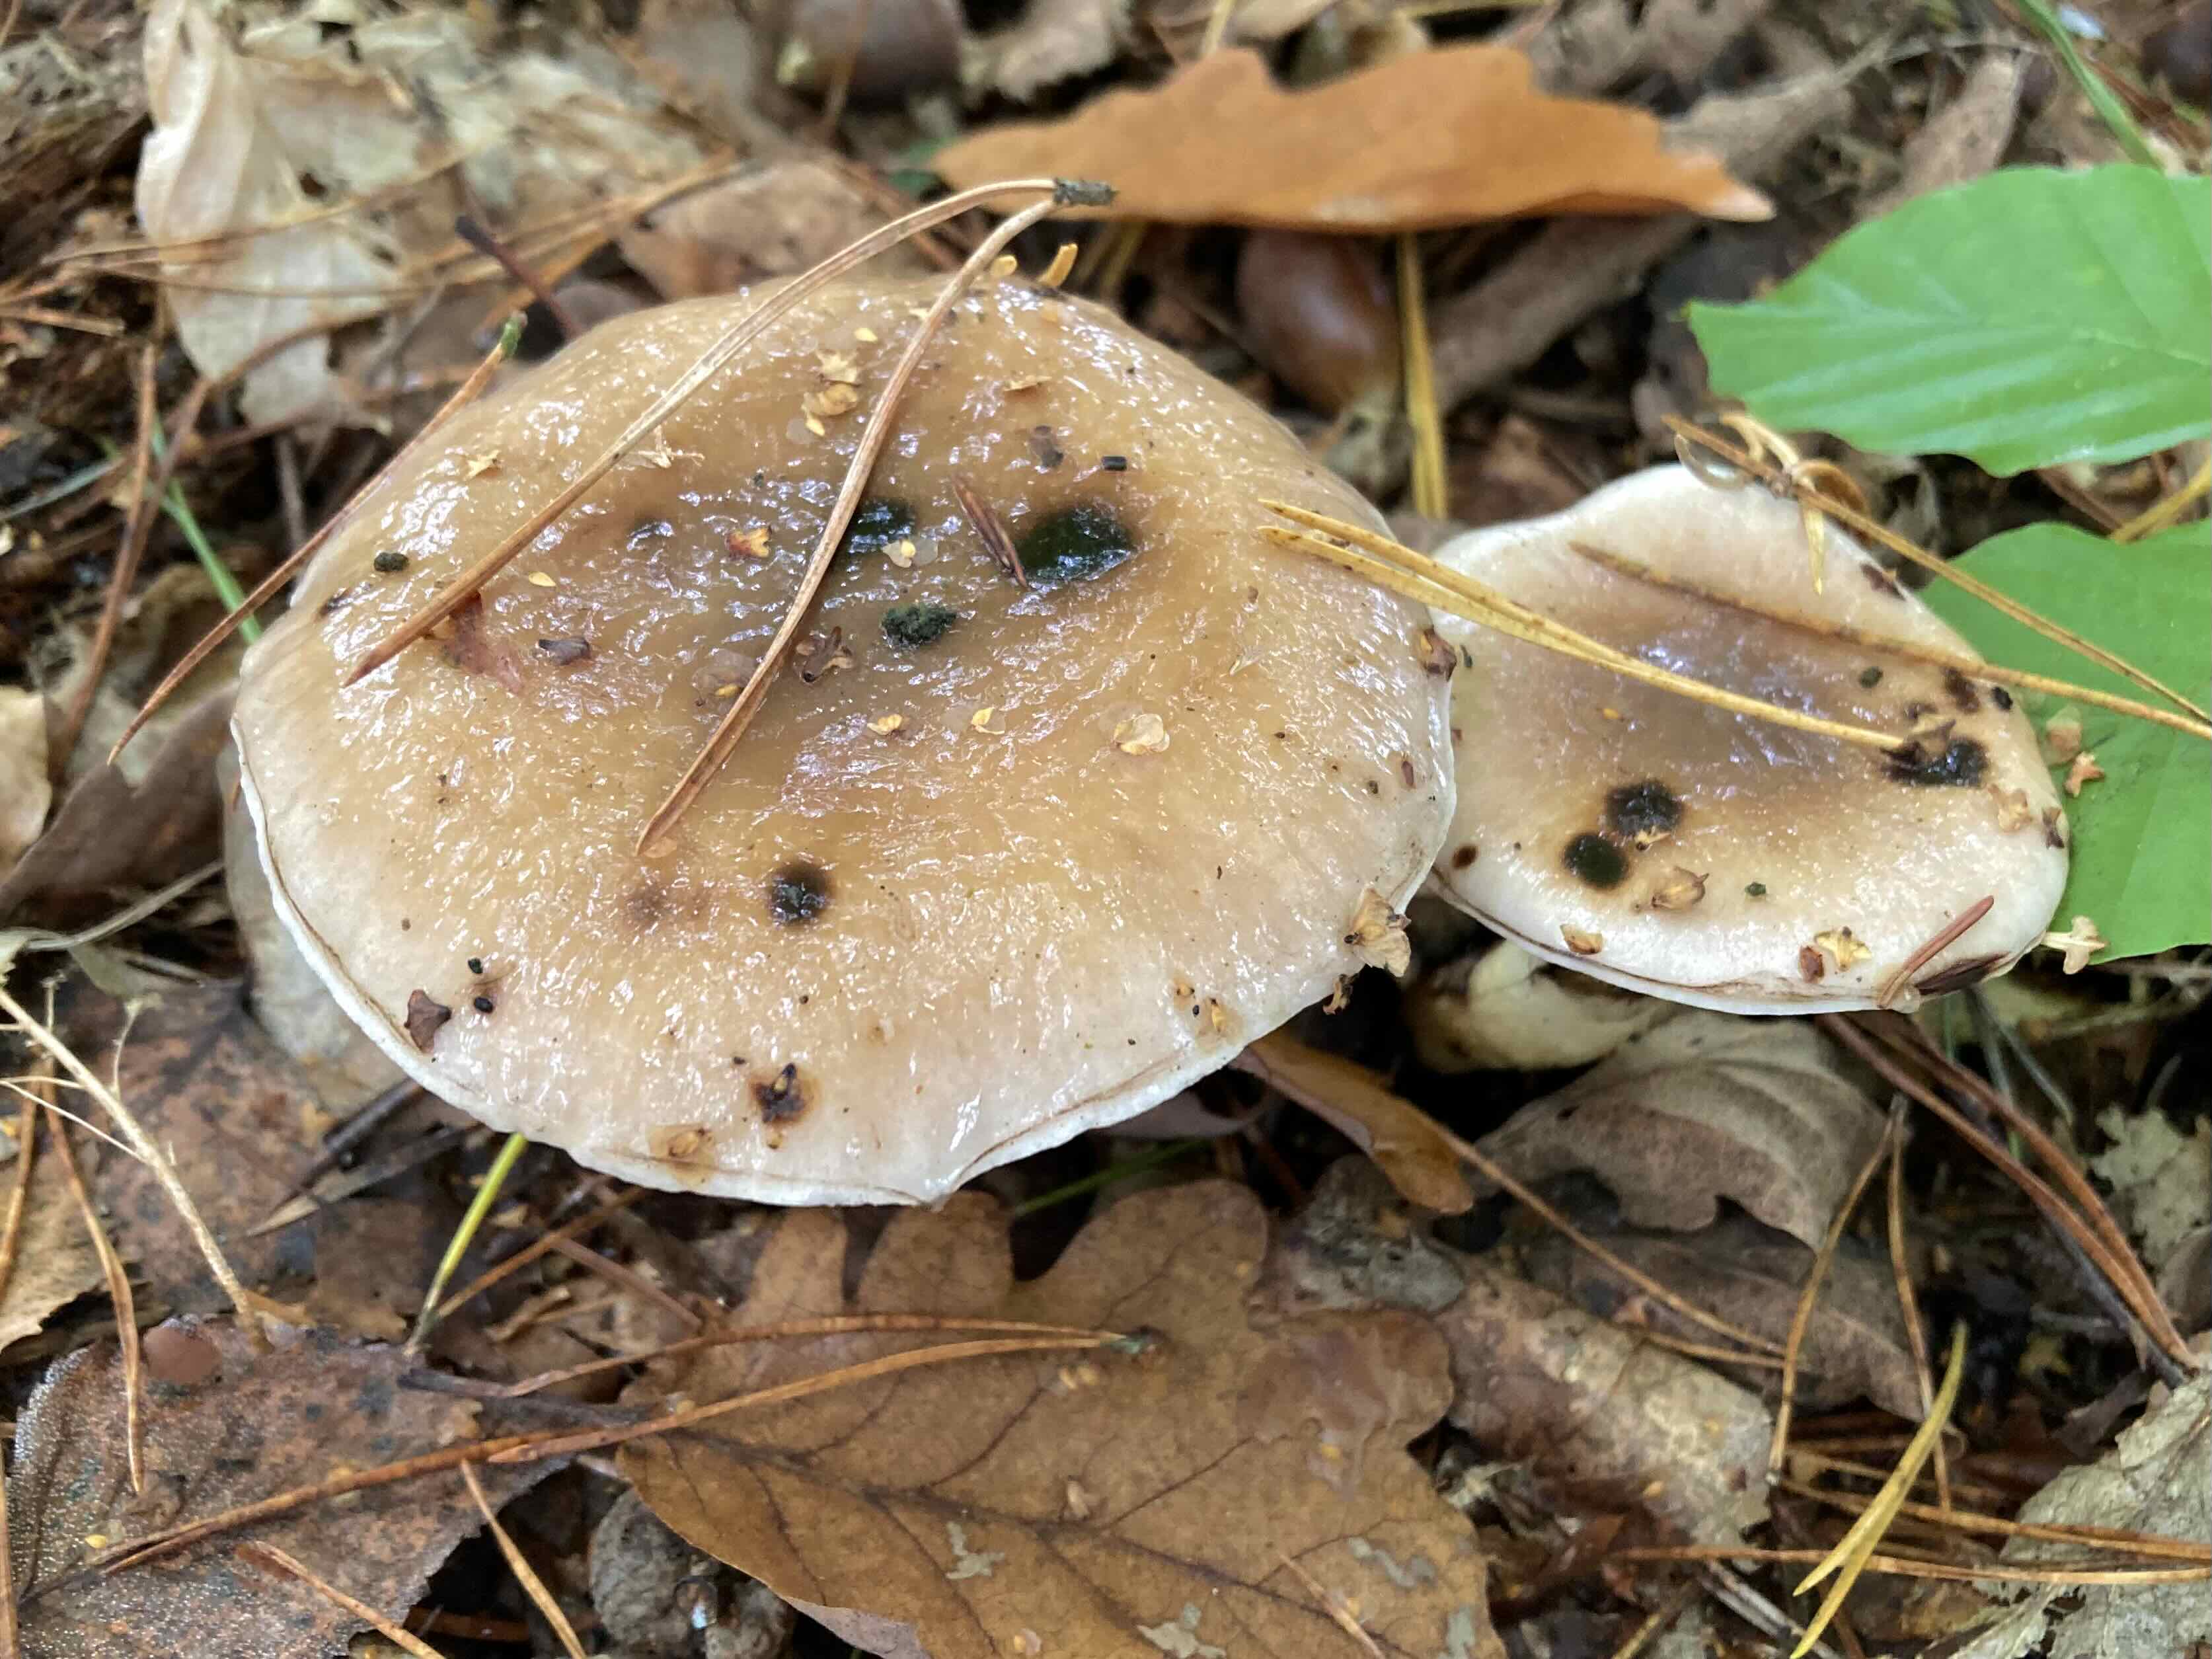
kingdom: Fungi
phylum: Basidiomycota
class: Agaricomycetes
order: Boletales
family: Gomphidiaceae
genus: Gomphidius
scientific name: Gomphidius glutinosus
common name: grå slimslør
